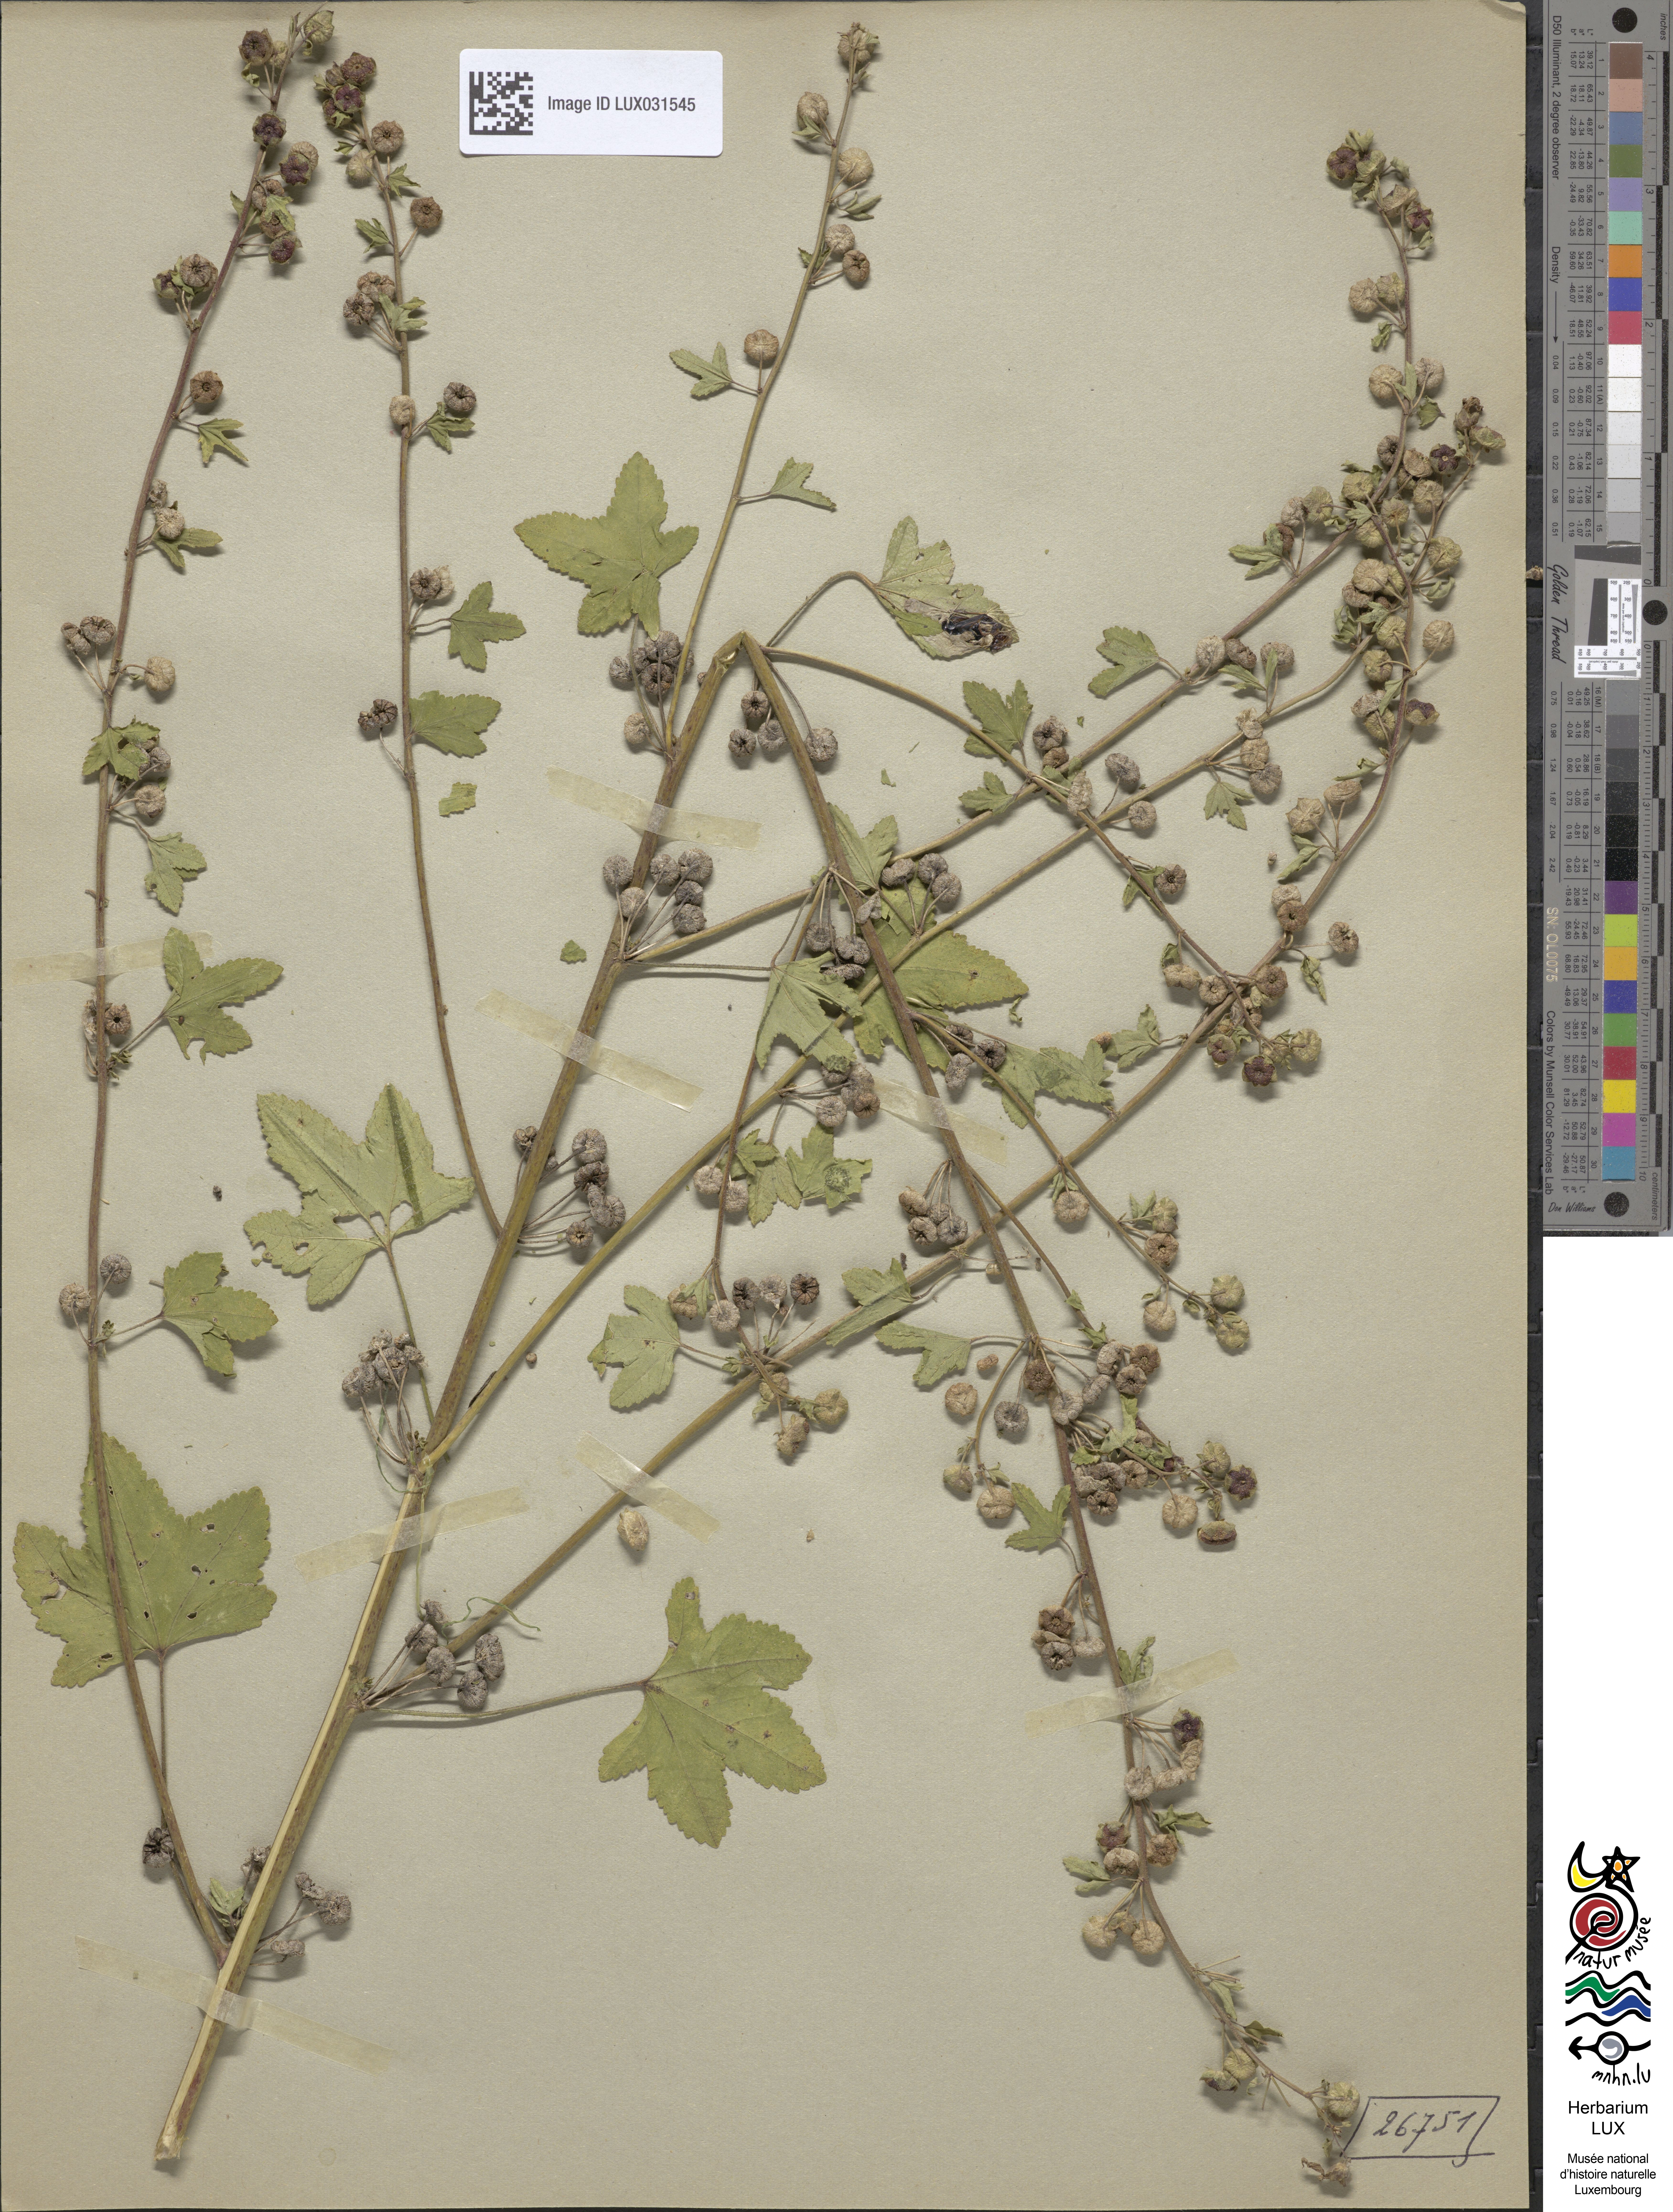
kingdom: Plantae
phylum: Tracheophyta
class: Magnoliopsida
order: Malvales
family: Malvaceae
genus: Malva
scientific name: Malva sylvestris
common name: Common mallow
